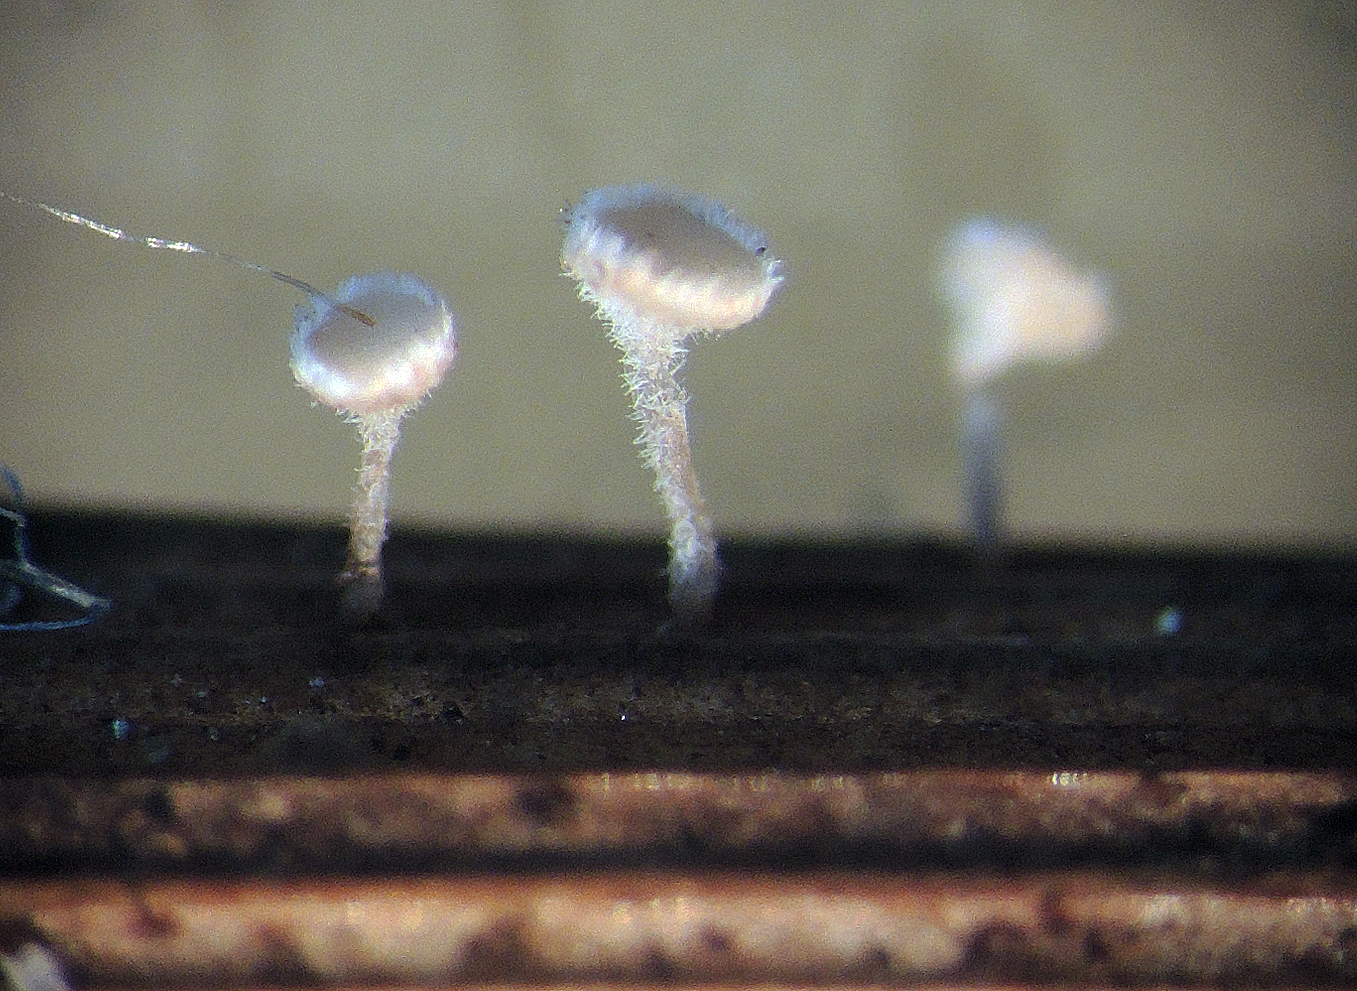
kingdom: Fungi
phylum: Ascomycota
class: Leotiomycetes
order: Helotiales
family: Lachnaceae
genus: Lachnum
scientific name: Lachnum tenuipilosum
